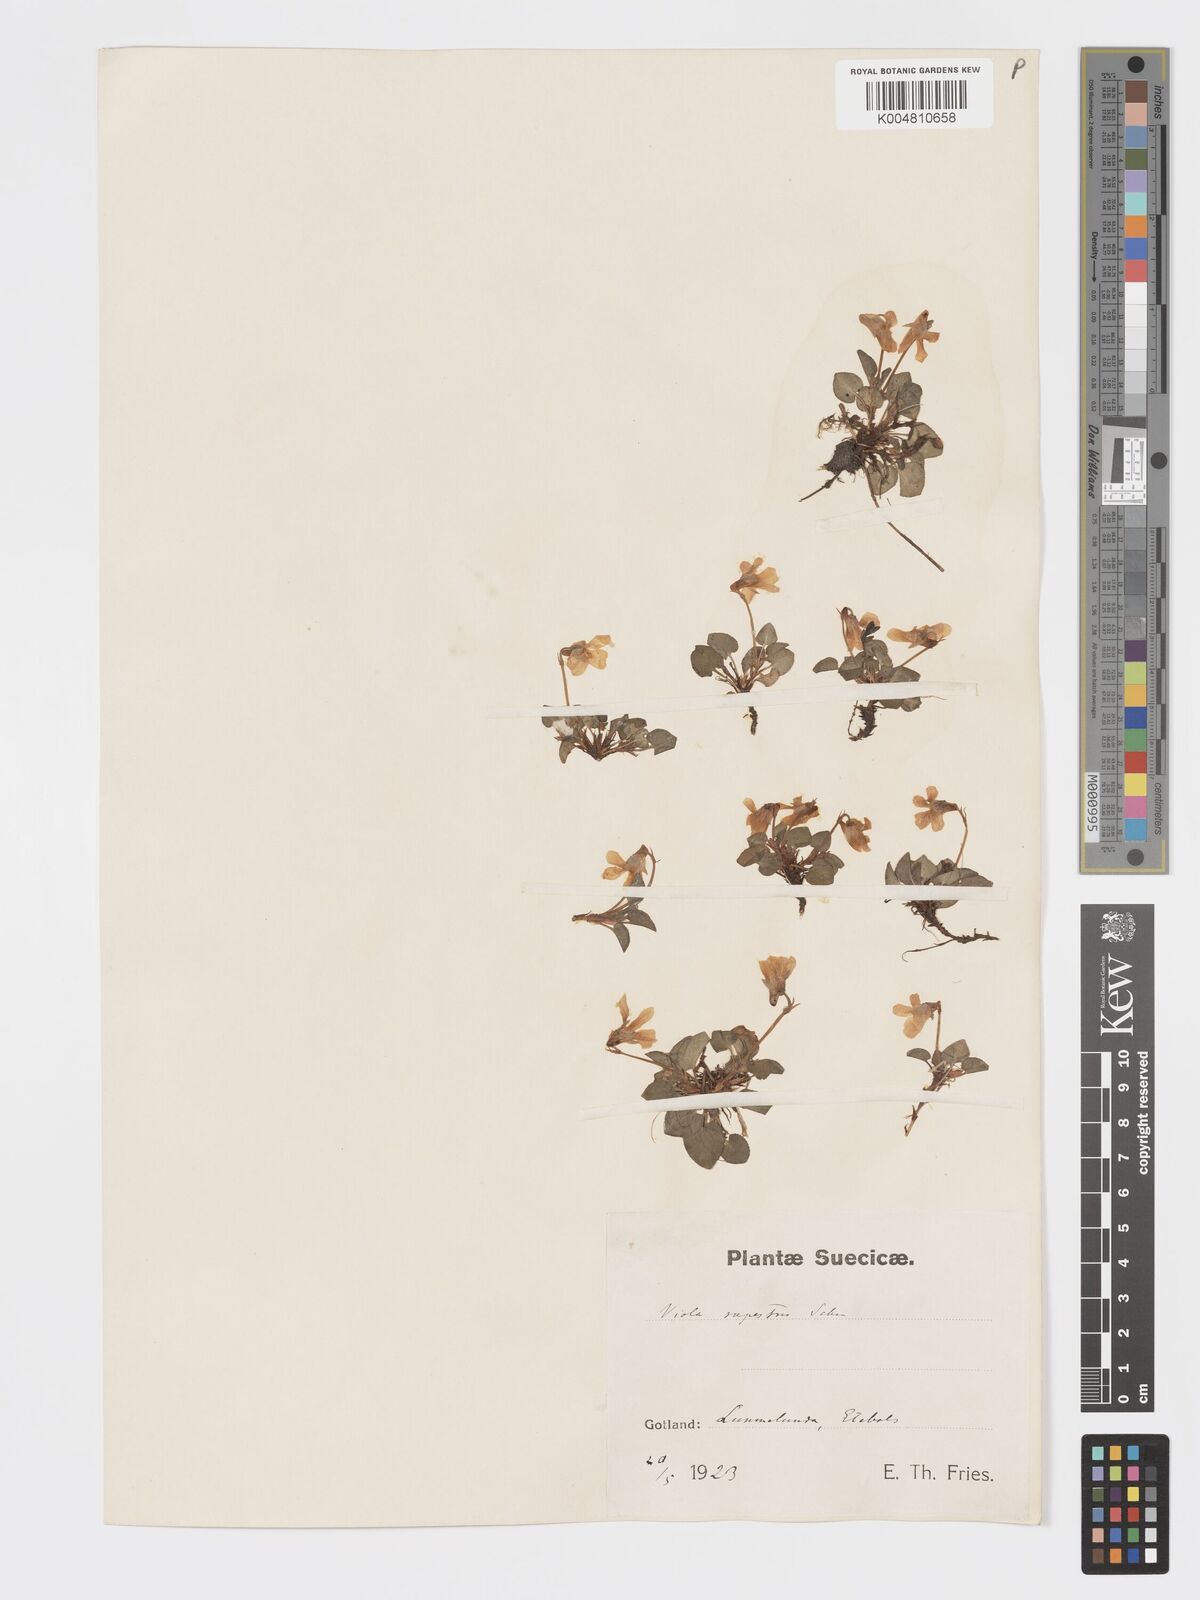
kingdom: Plantae
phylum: Tracheophyta
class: Magnoliopsida
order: Malpighiales
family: Violaceae
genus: Viola
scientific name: Viola rupestris
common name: Teesdale violet
